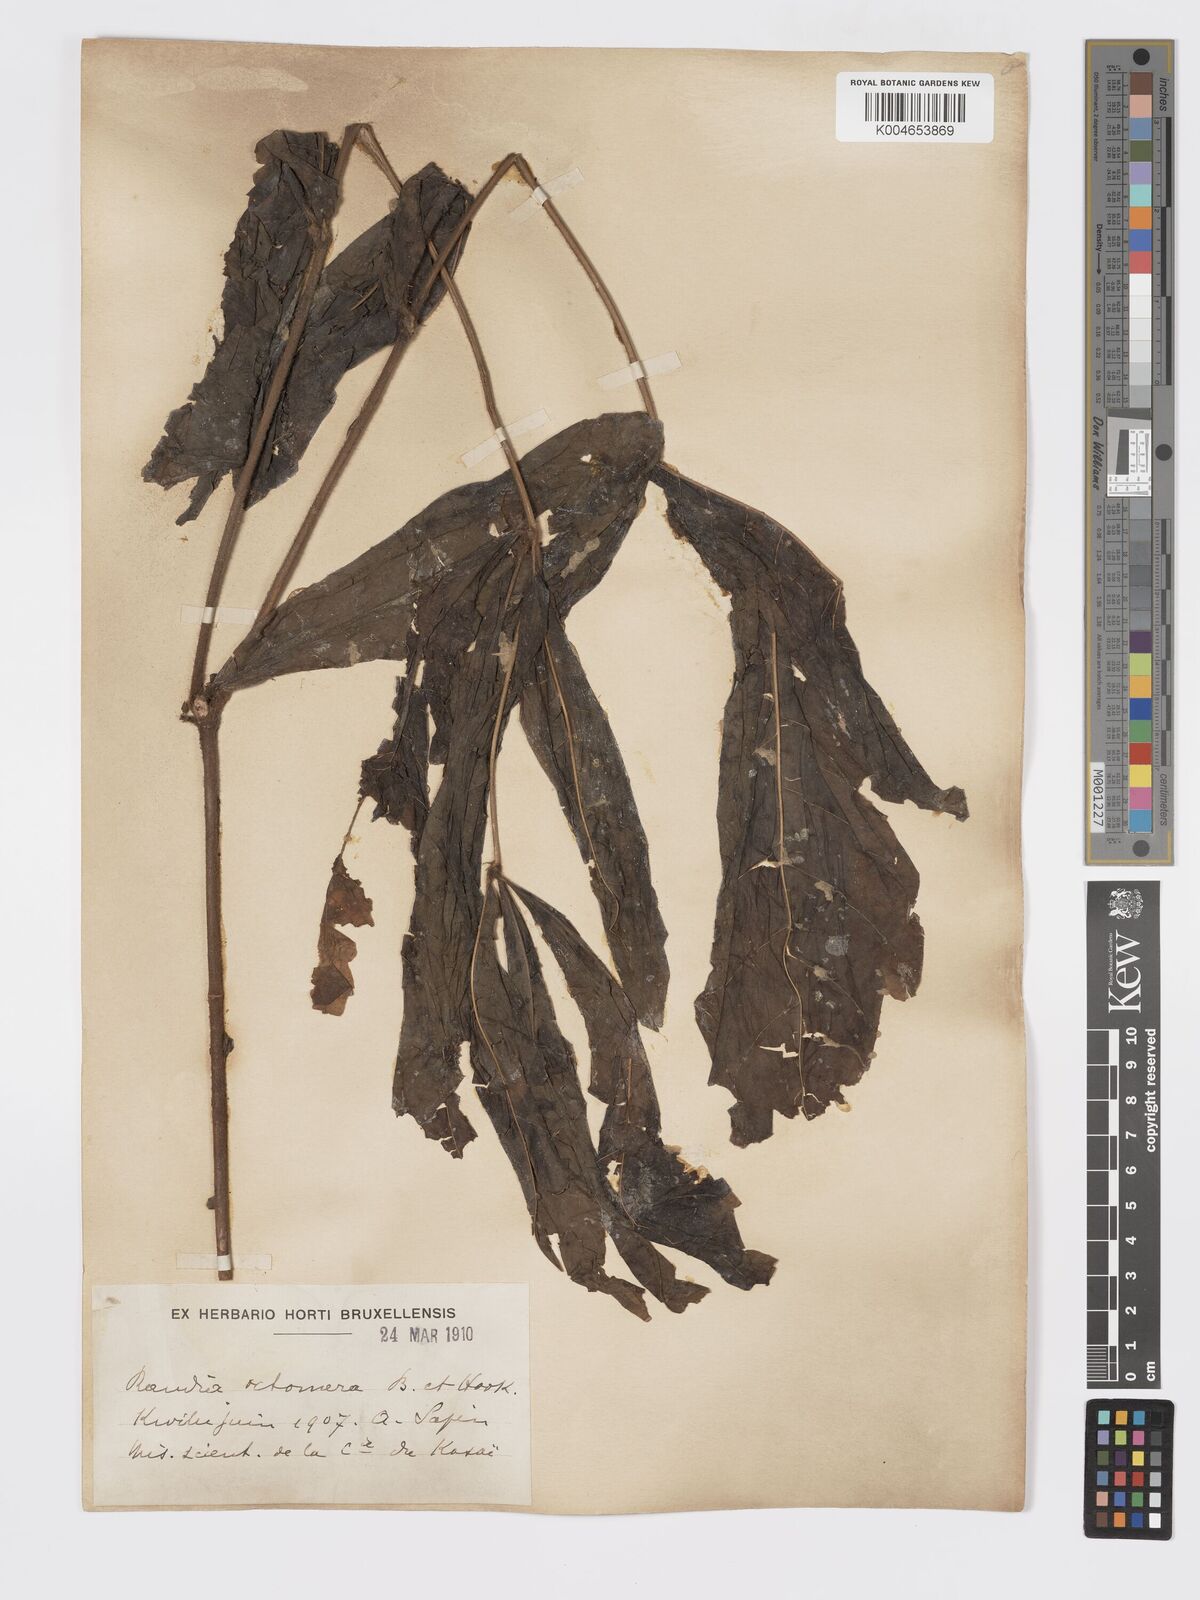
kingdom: Plantae
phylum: Tracheophyta
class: Magnoliopsida
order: Gentianales
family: Rubiaceae
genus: Rothmannia
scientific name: Rothmannia octomera
